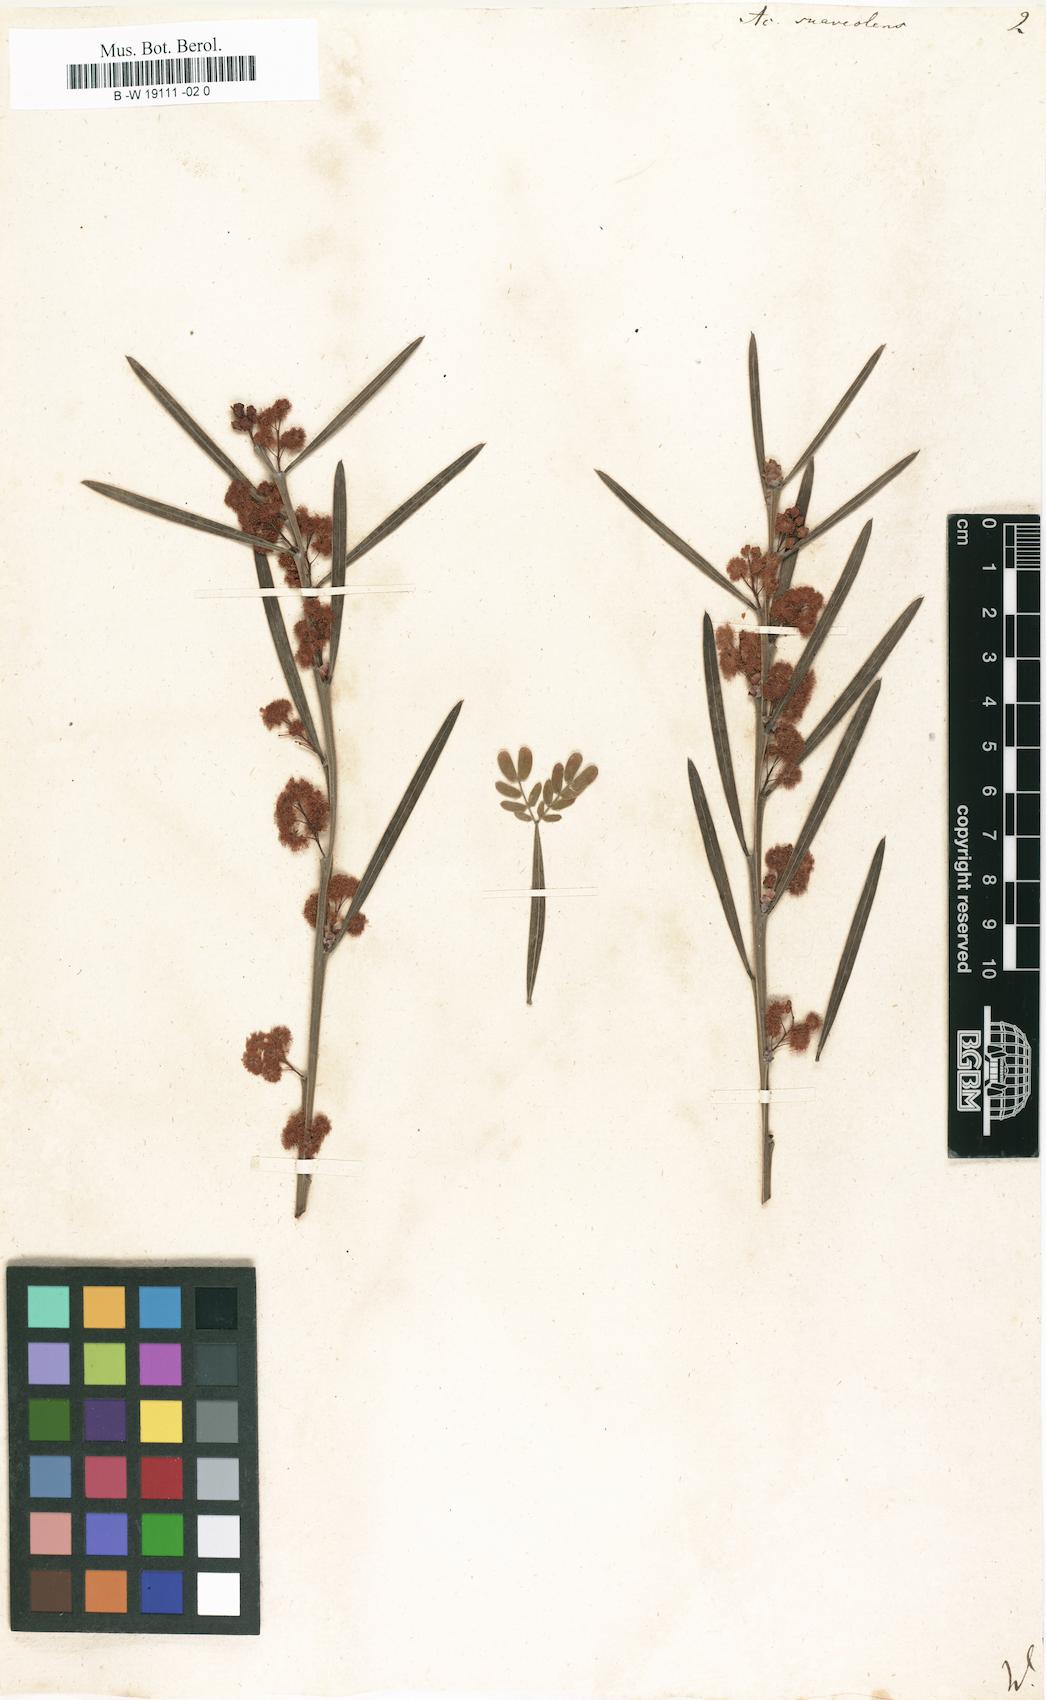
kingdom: Plantae
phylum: Tracheophyta
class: Magnoliopsida
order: Fabales
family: Fabaceae
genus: Acacia
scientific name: Acacia suaveolens
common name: Sweet acacia
